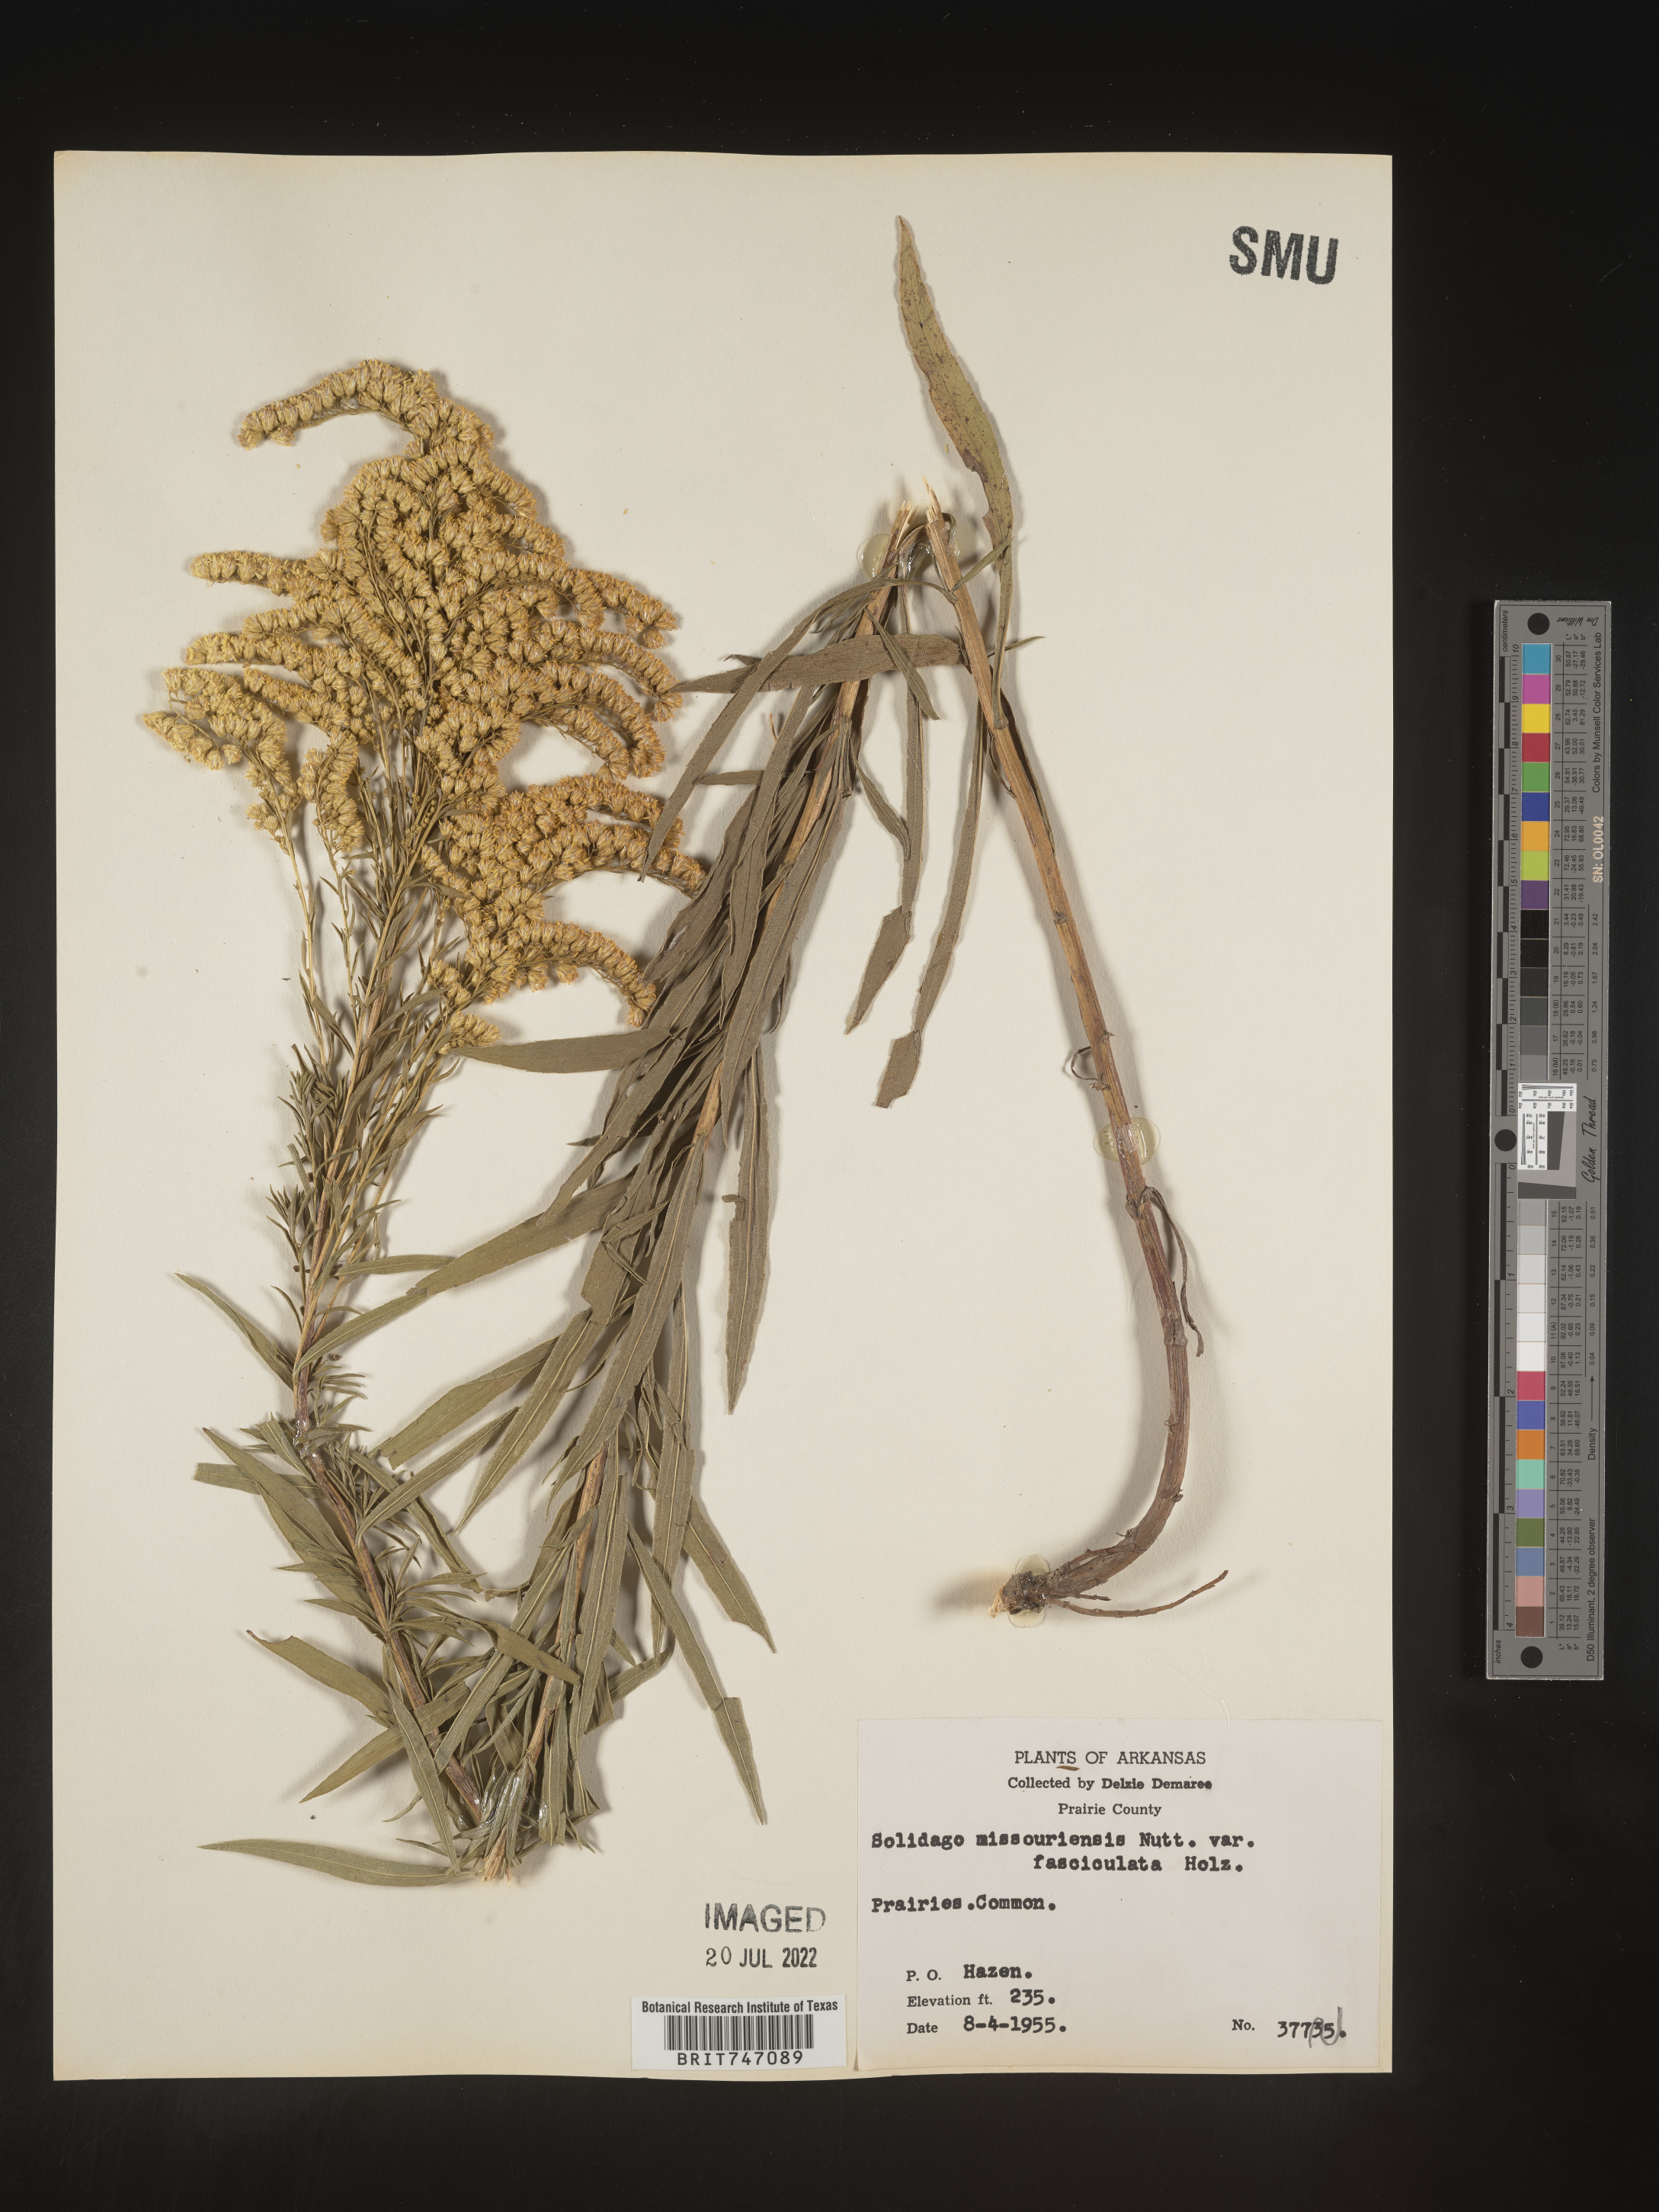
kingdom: Plantae
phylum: Tracheophyta
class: Magnoliopsida
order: Asterales
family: Asteraceae
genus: Solidago
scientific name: Solidago missouriensis
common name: Prairie goldenrod
